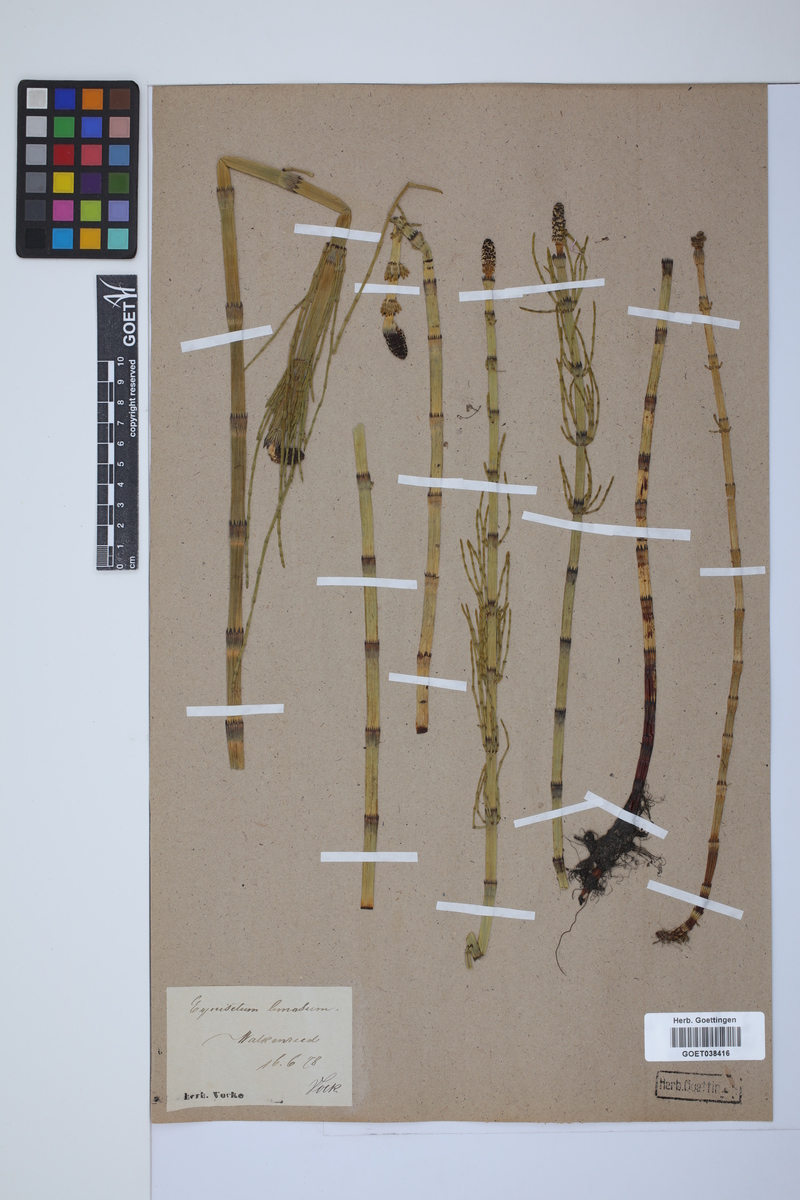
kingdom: Plantae
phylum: Tracheophyta
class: Polypodiopsida
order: Equisetales
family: Equisetaceae
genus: Equisetum
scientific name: Equisetum fluviatile
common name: Water horsetail
